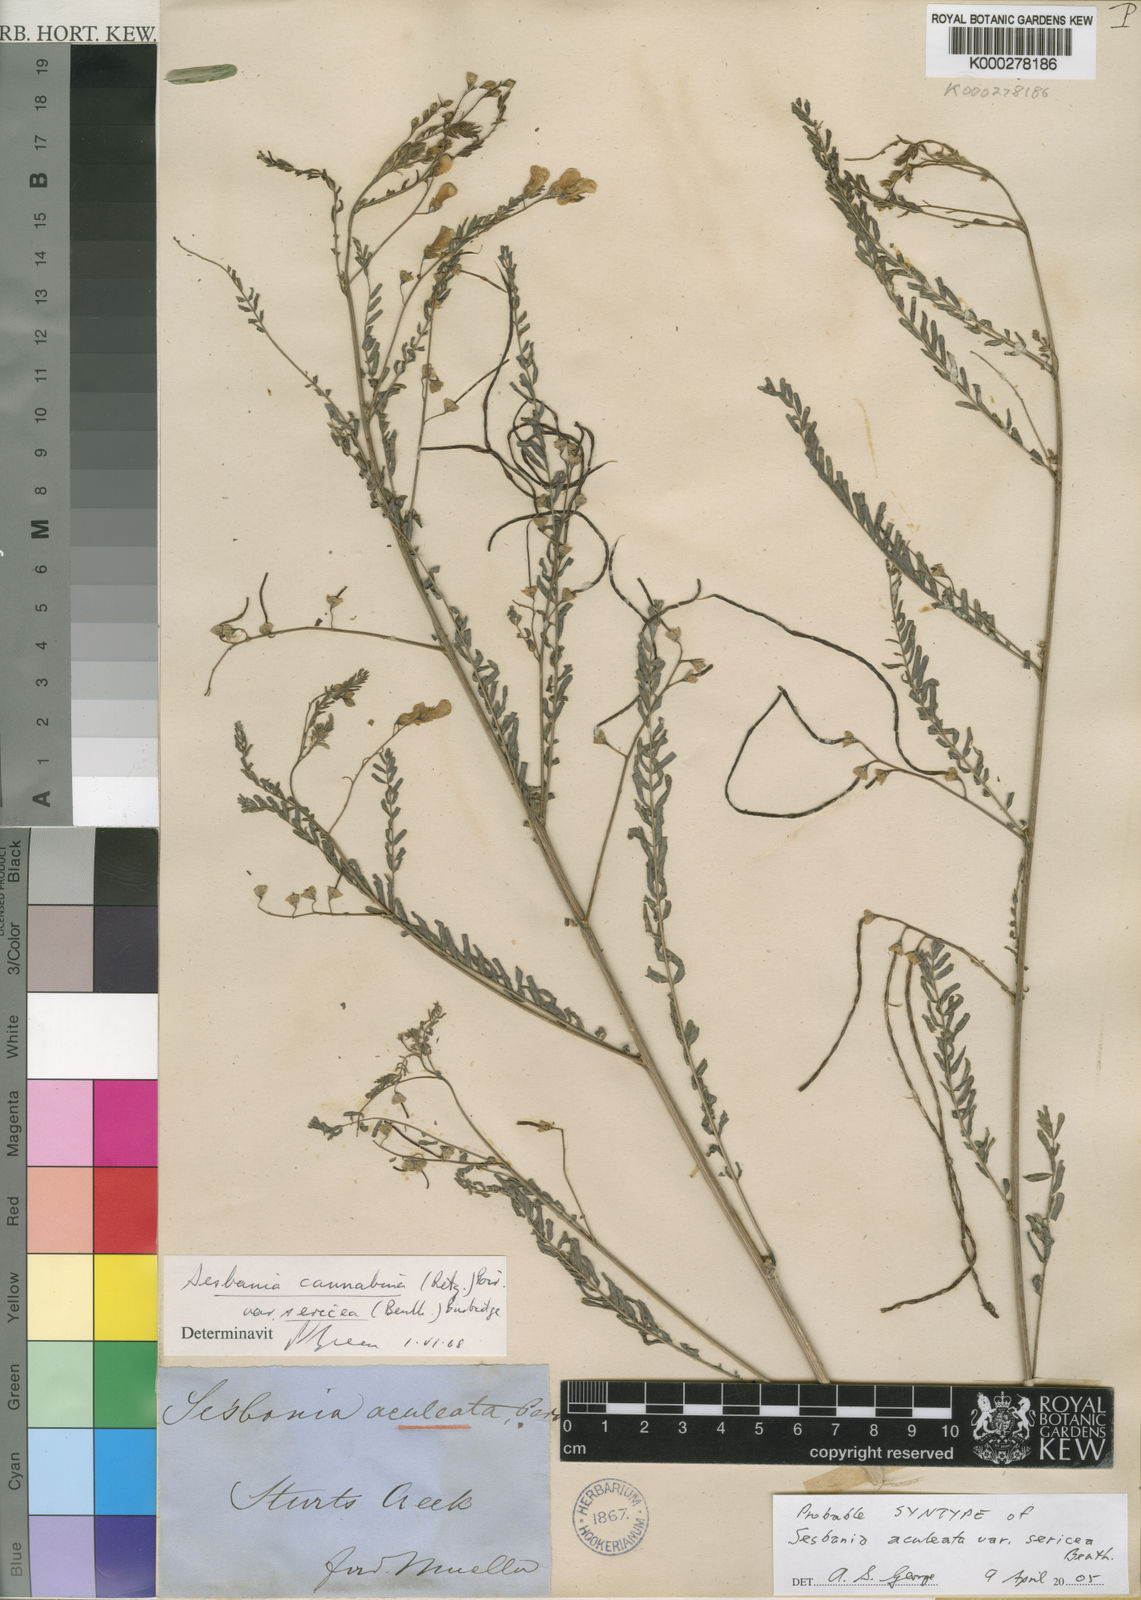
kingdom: Plantae
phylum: Tracheophyta
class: Magnoliopsida
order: Fabales
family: Fabaceae
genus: Sesbania
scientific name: Sesbania cannabina
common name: Canicha
